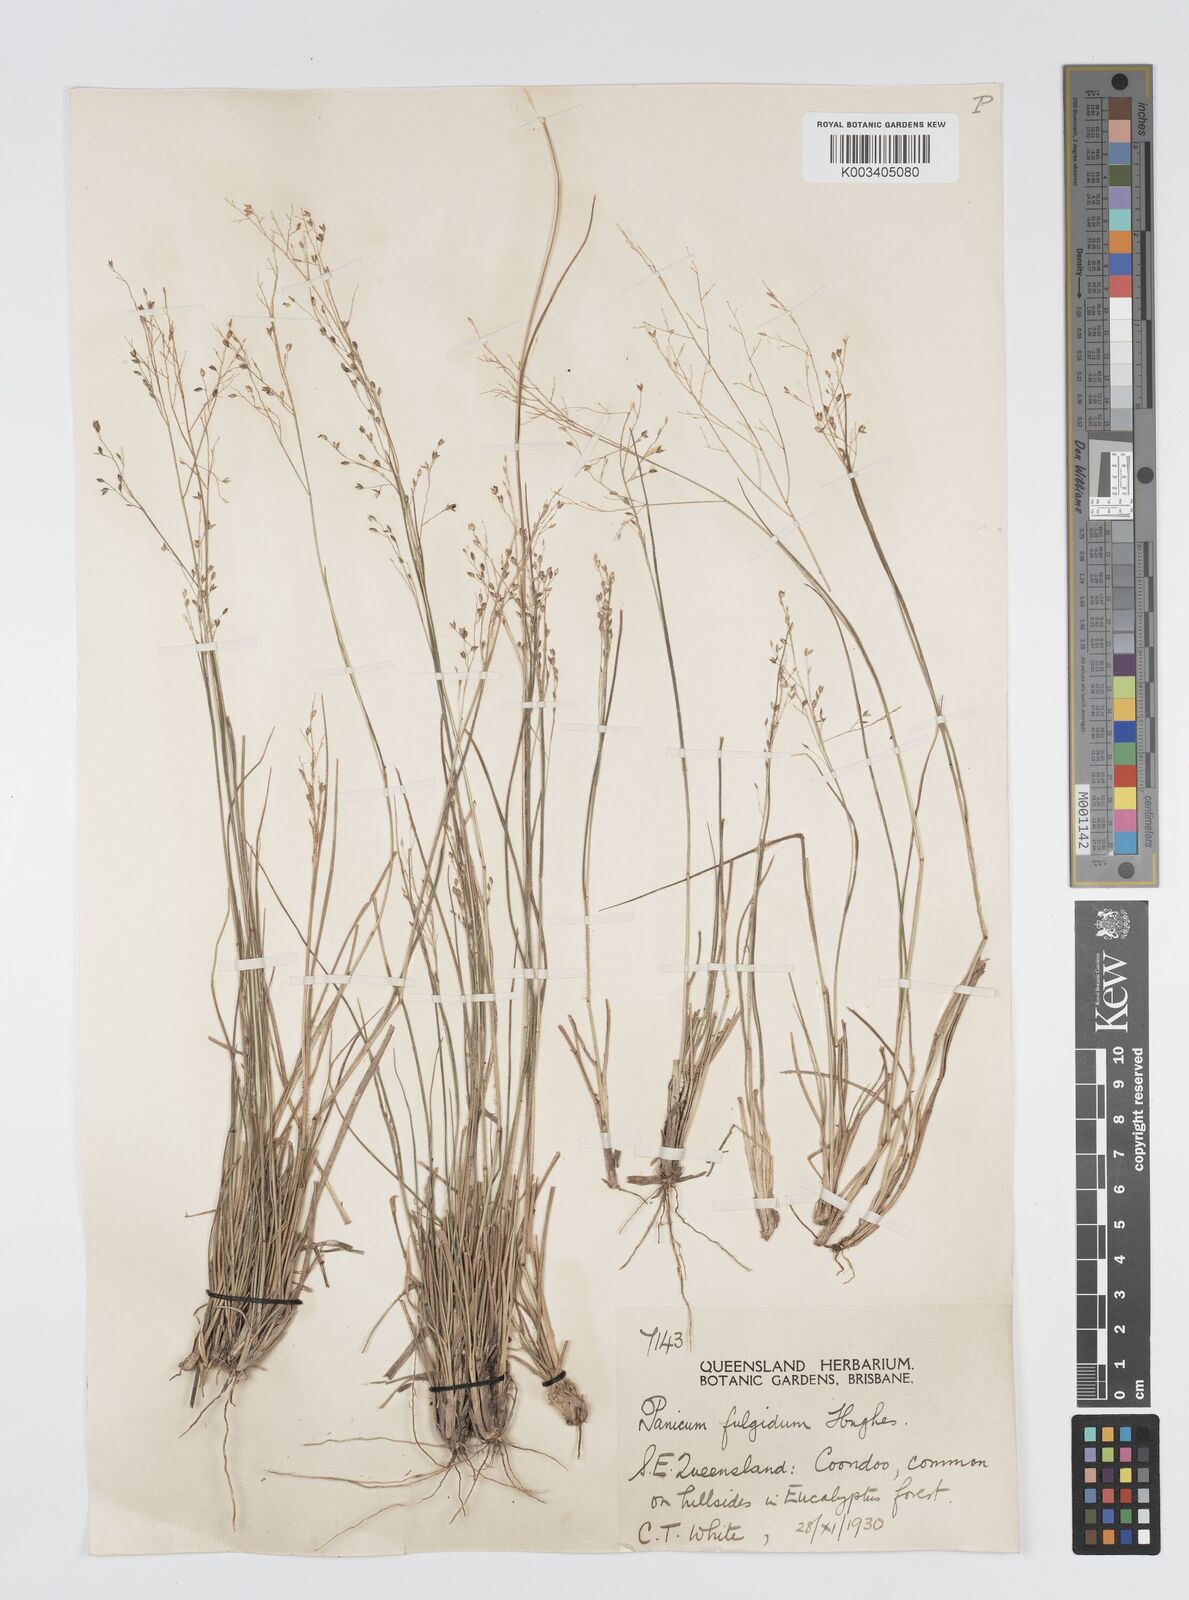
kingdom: Plantae
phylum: Tracheophyta
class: Liliopsida
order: Poales
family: Poaceae
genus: Panicum
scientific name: Panicum simile
